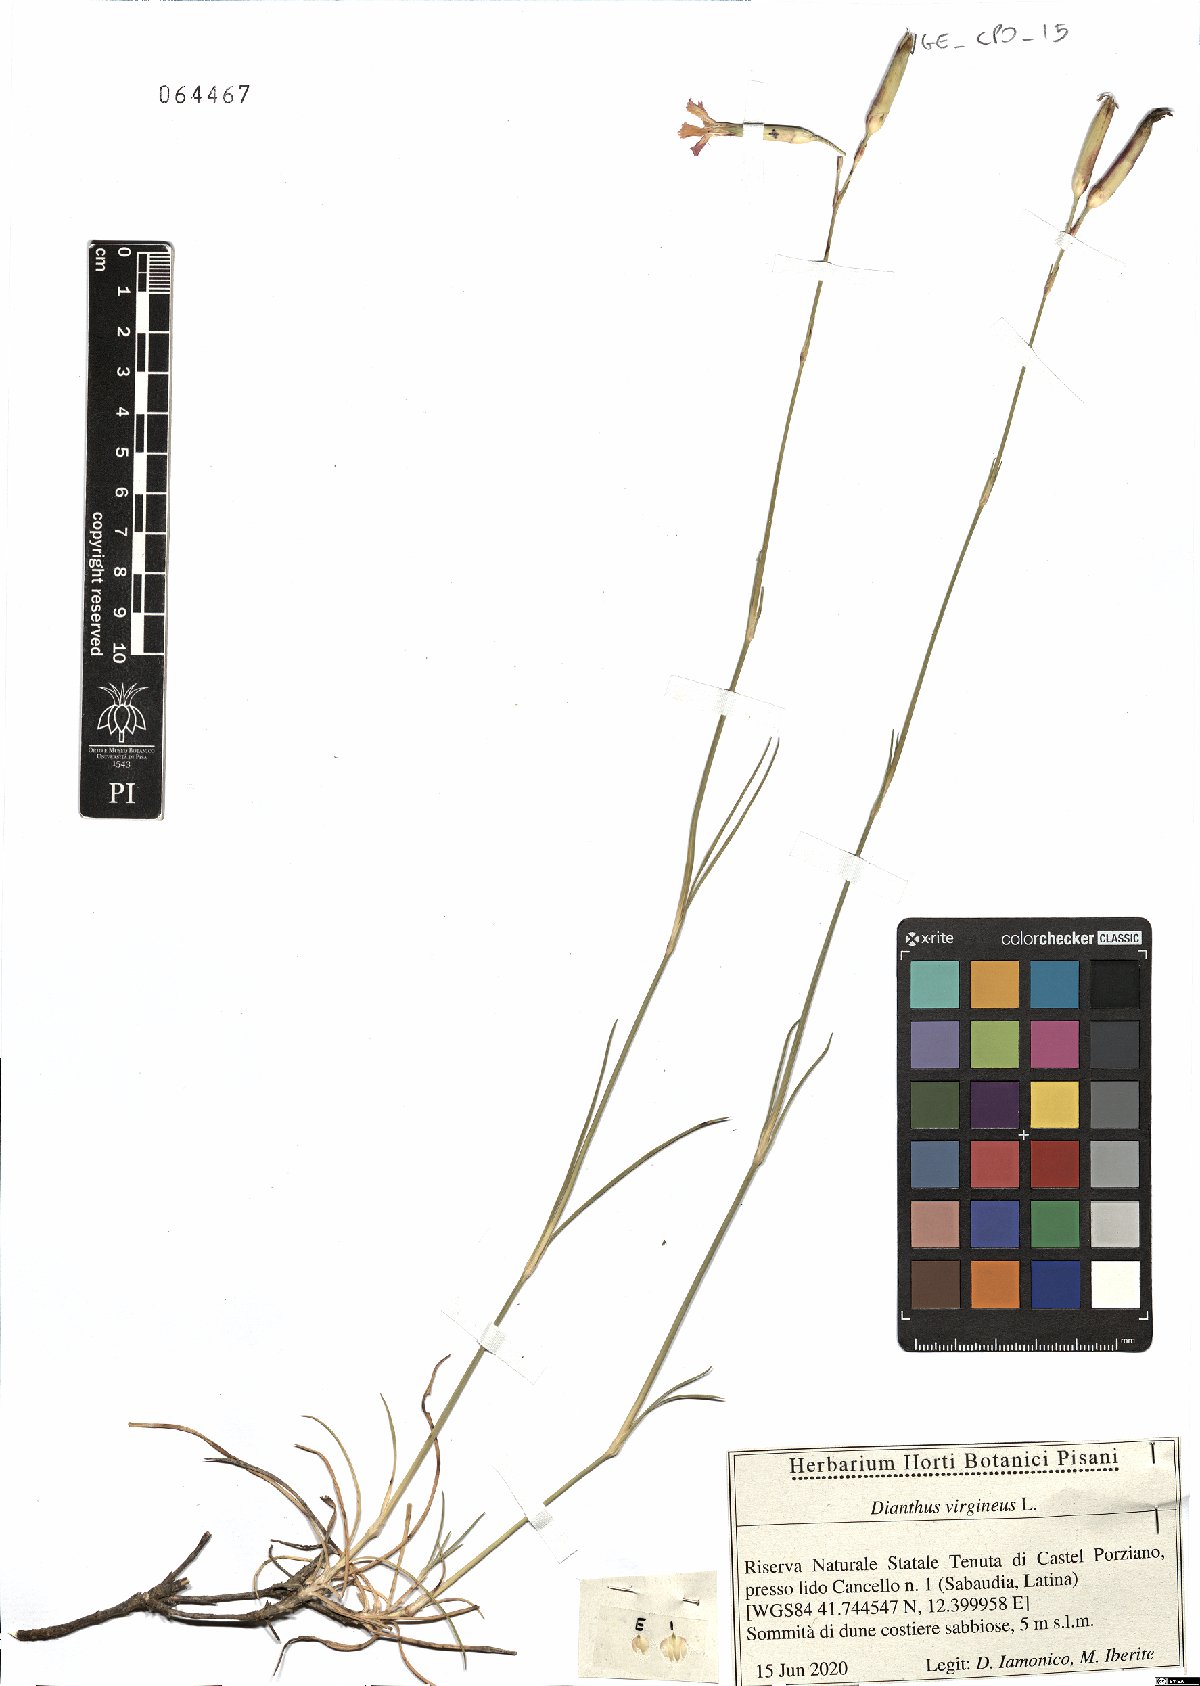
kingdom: Plantae
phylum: Tracheophyta
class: Magnoliopsida
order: Caryophyllales
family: Caryophyllaceae
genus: Dianthus
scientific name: Dianthus virgineus
